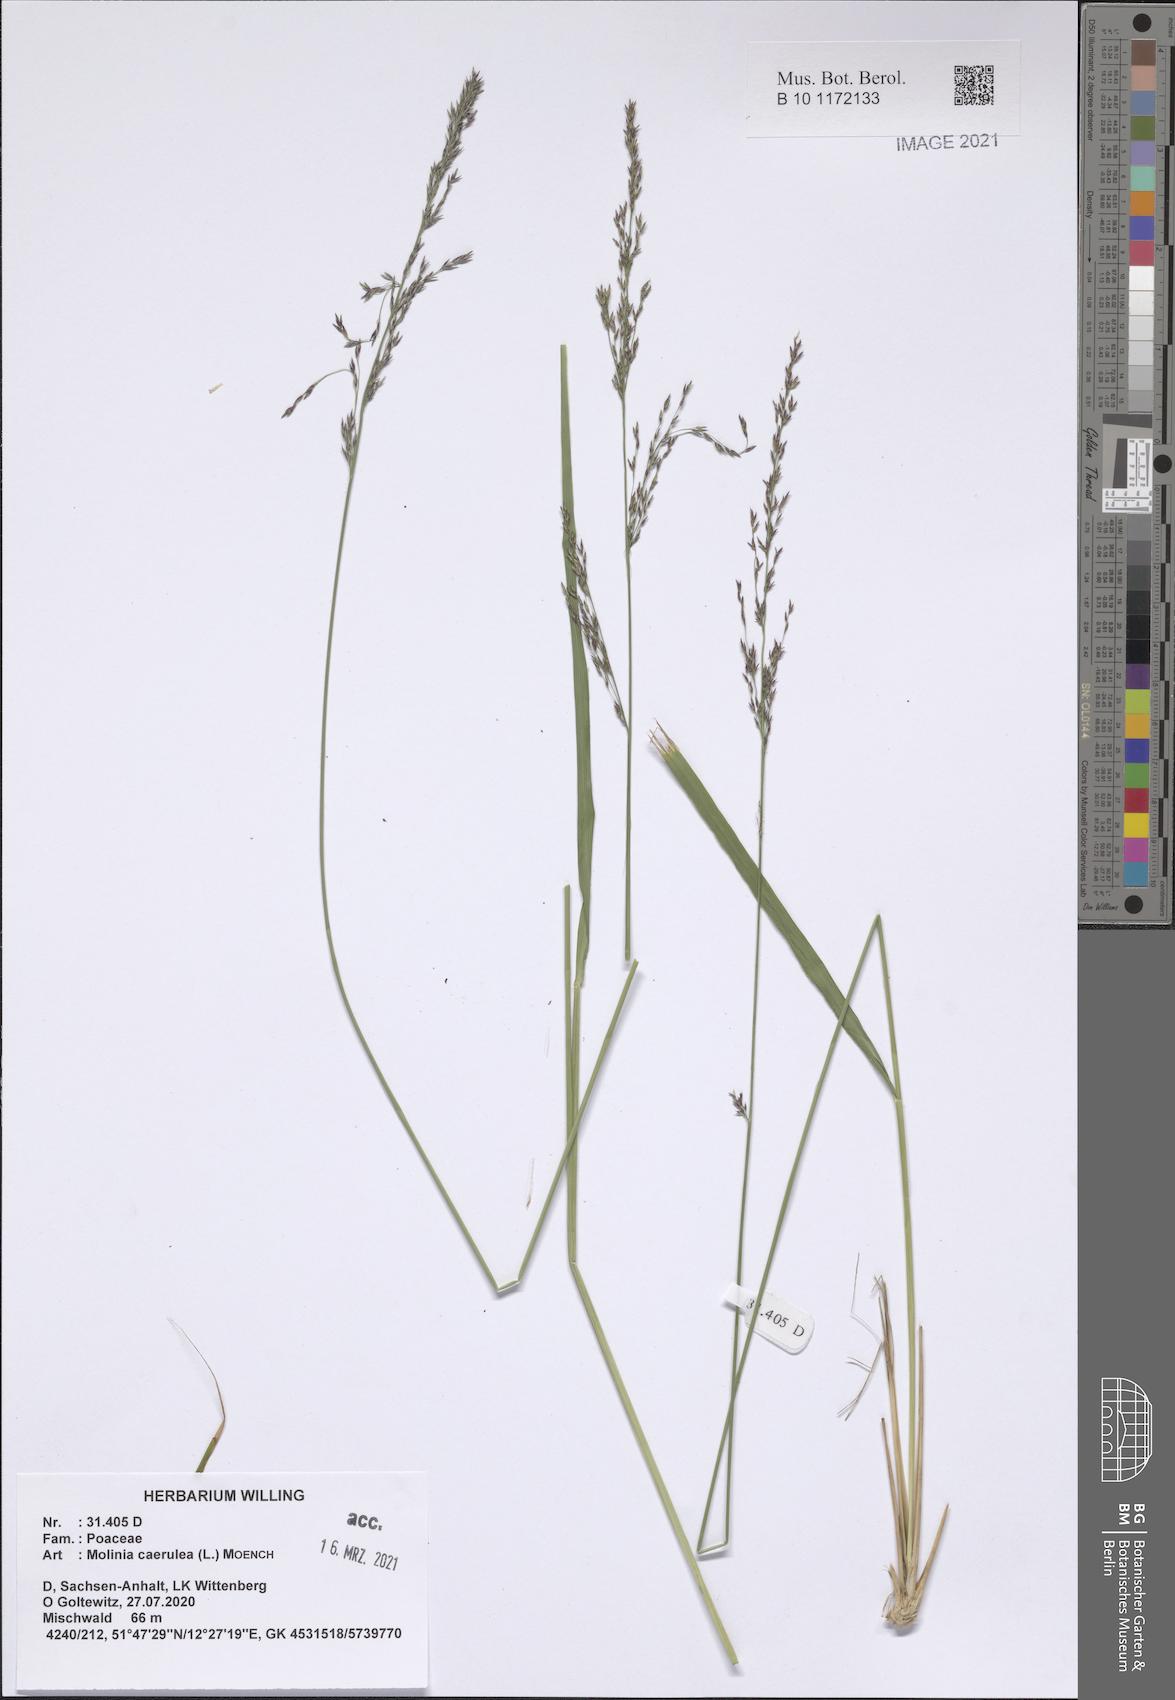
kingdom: Plantae
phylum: Tracheophyta
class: Liliopsida
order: Poales
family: Poaceae
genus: Molinia
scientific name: Molinia caerulea
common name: Purple moor-grass
